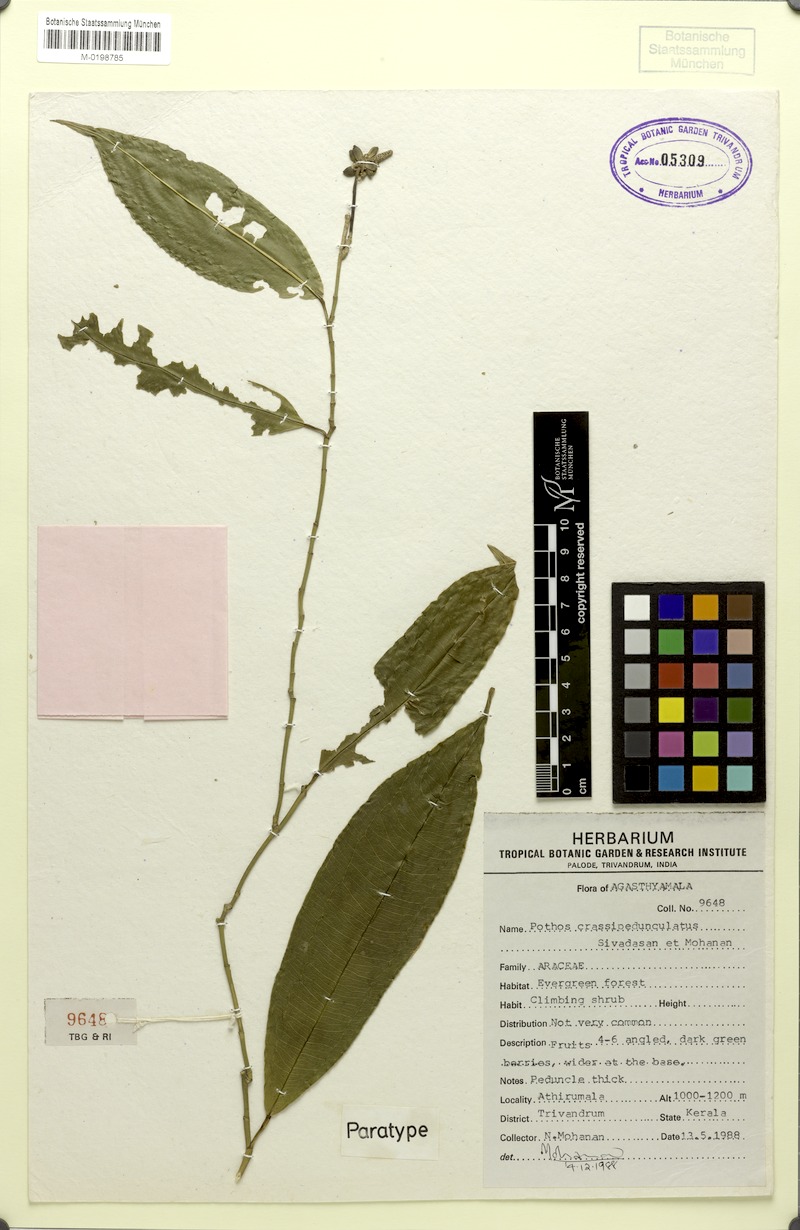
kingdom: Plantae
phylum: Tracheophyta
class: Liliopsida
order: Alismatales
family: Araceae
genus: Pothos
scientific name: Pothos crassipedunculatus
